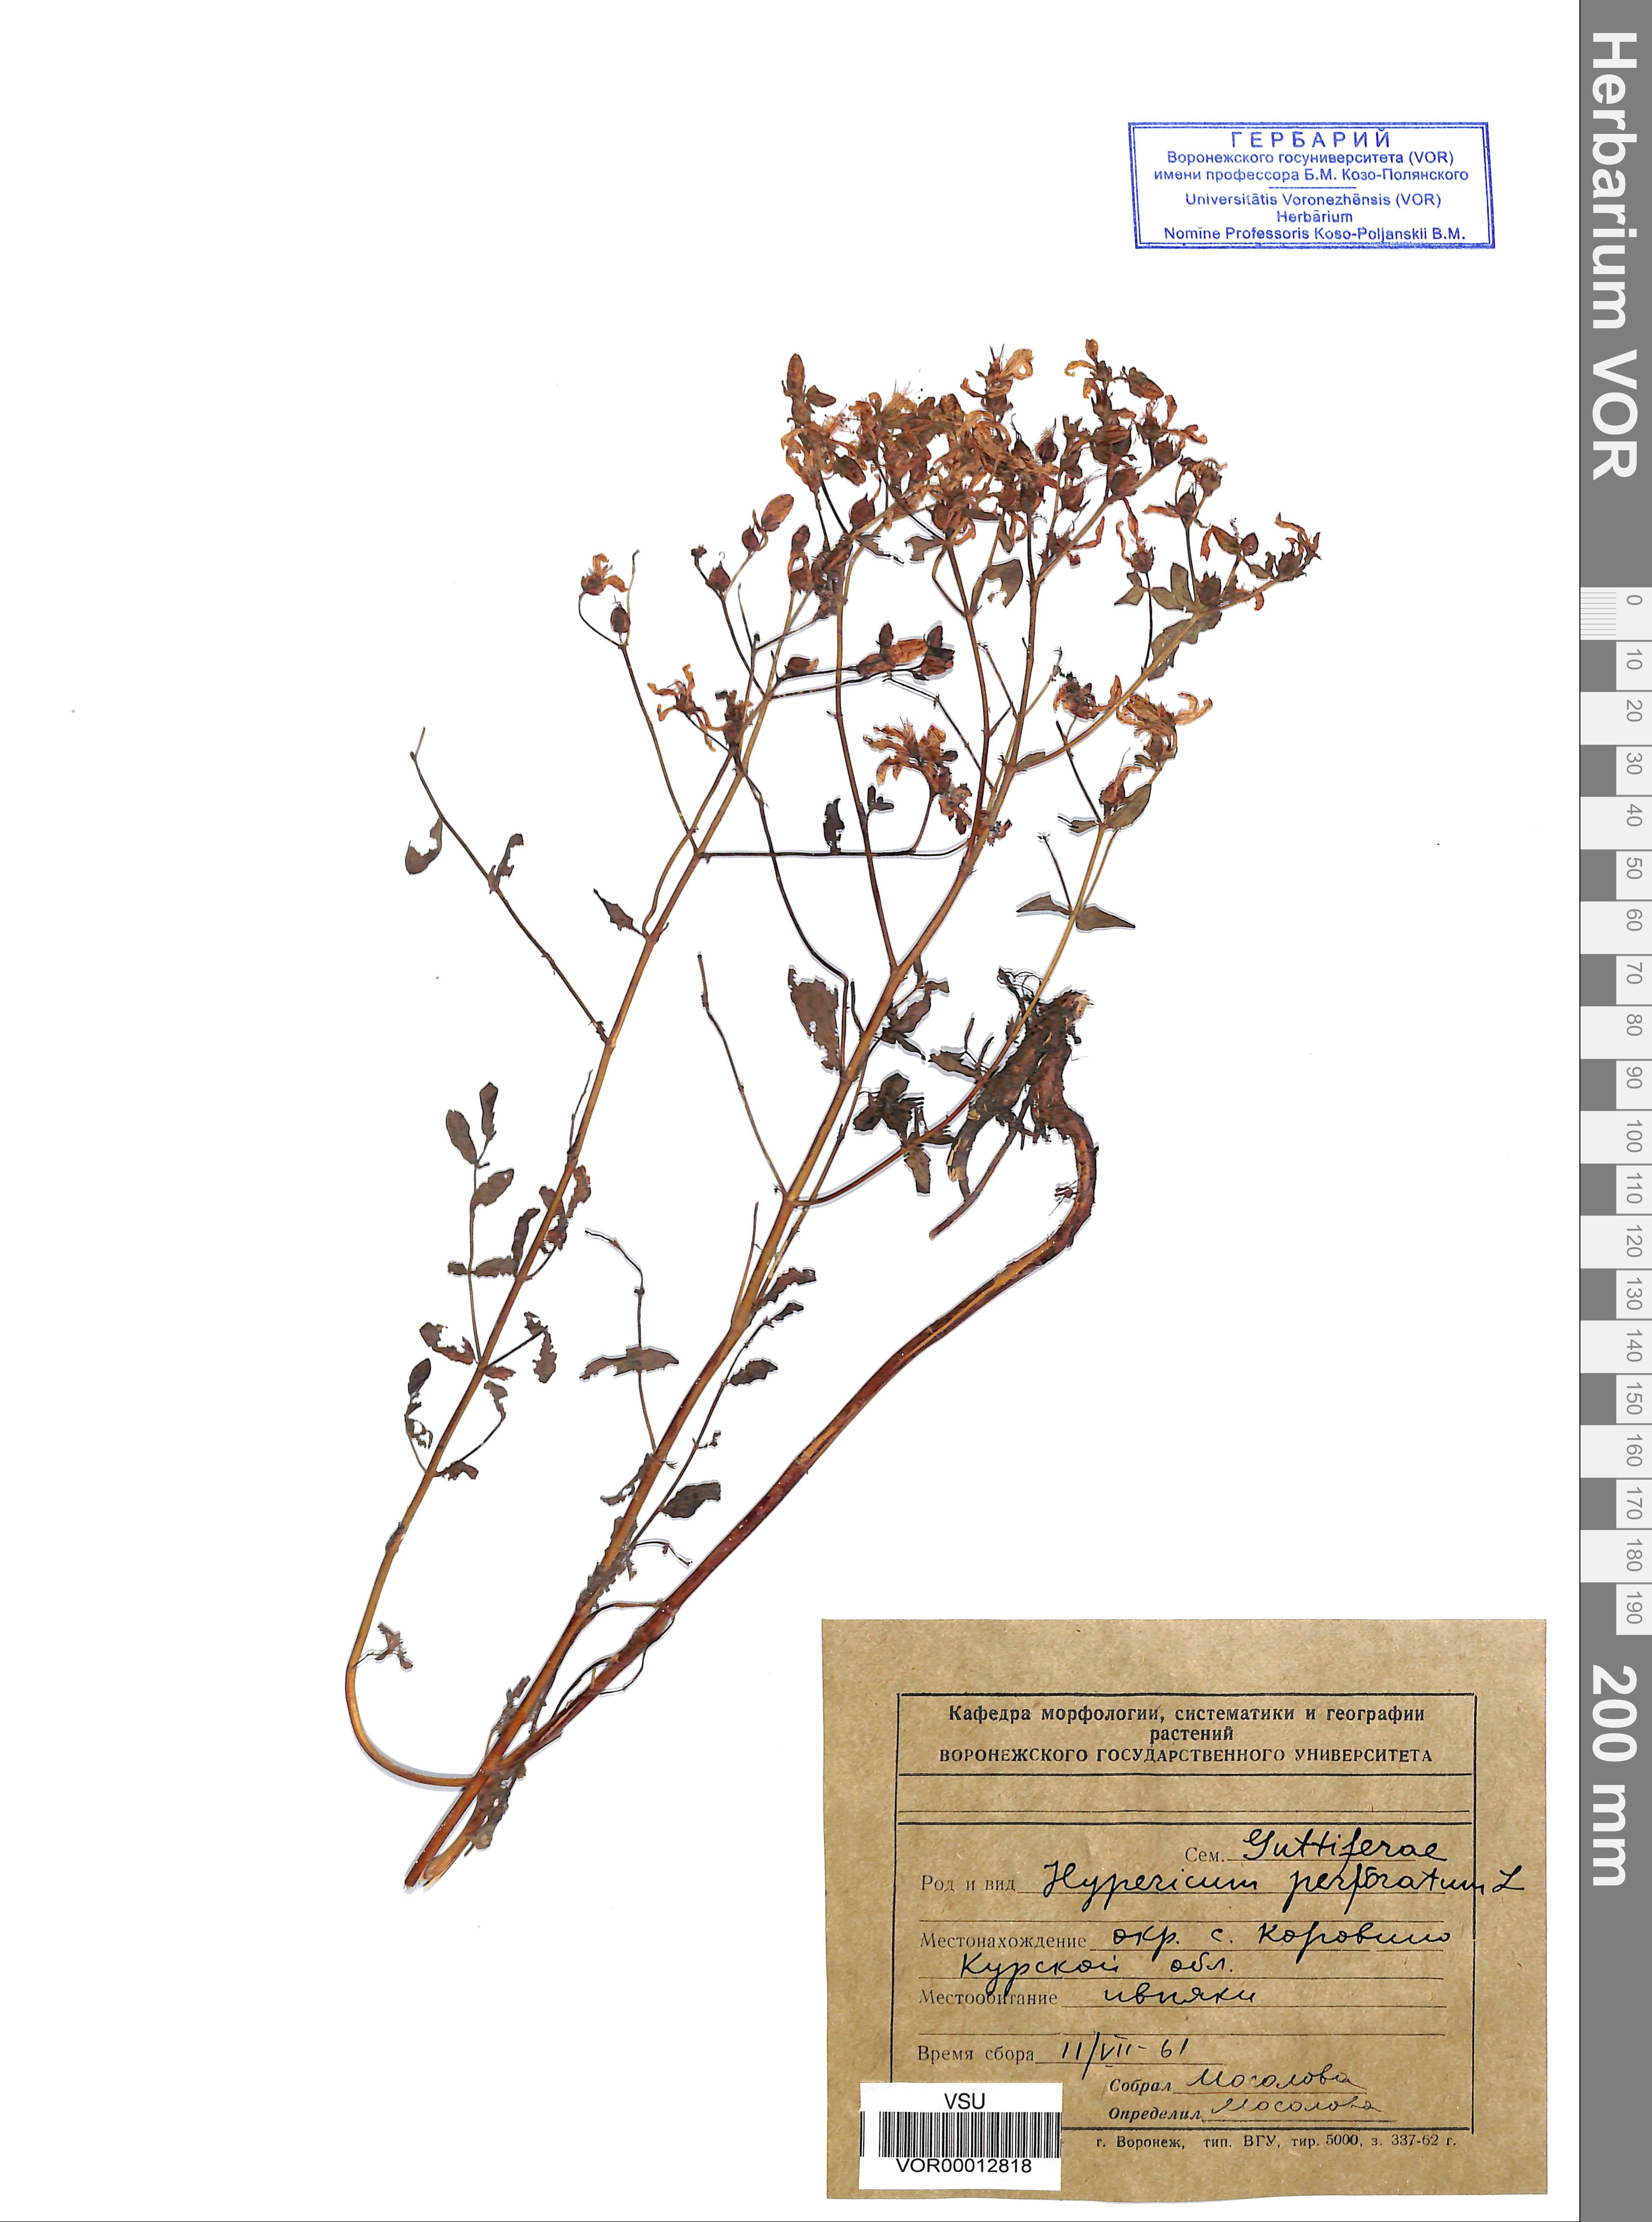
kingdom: Plantae
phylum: Tracheophyta
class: Magnoliopsida
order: Malpighiales
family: Hypericaceae
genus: Hypericum
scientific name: Hypericum perforatum
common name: Common st. johnswort
